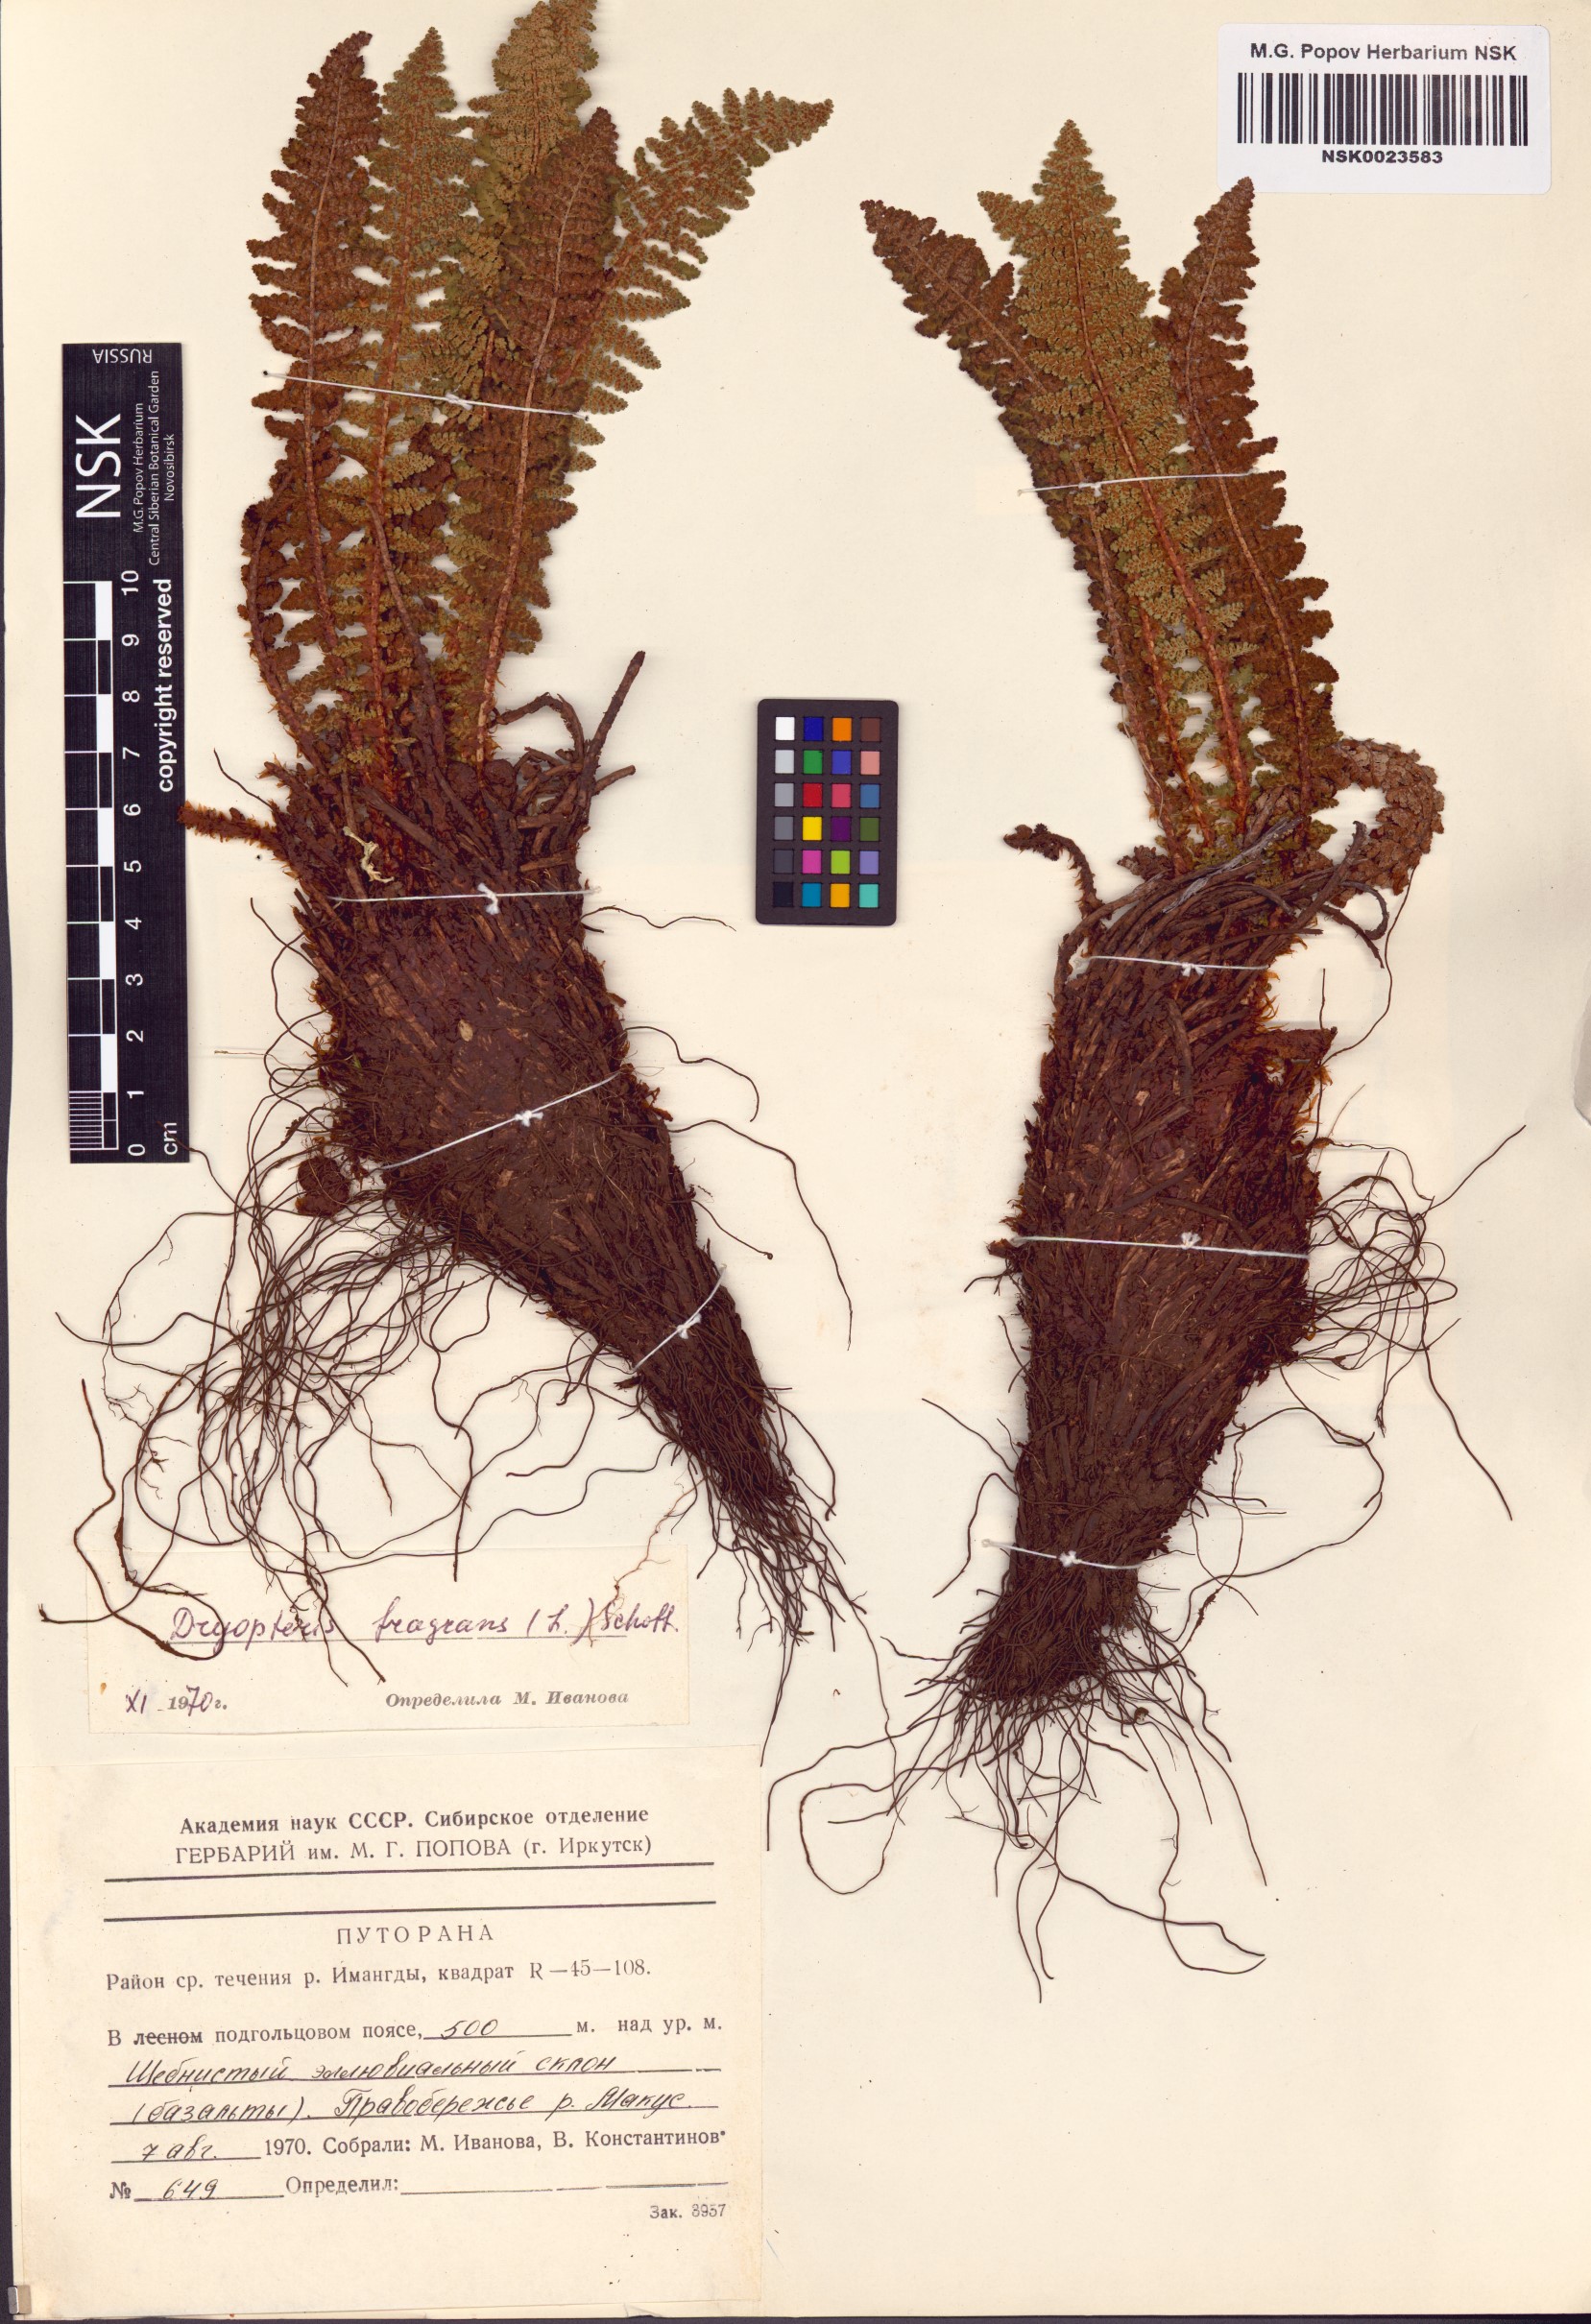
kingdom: Plantae
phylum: Tracheophyta
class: Polypodiopsida
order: Polypodiales
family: Dryopteridaceae
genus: Dryopteris
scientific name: Dryopteris fragrans
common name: Fragrant wood fern
